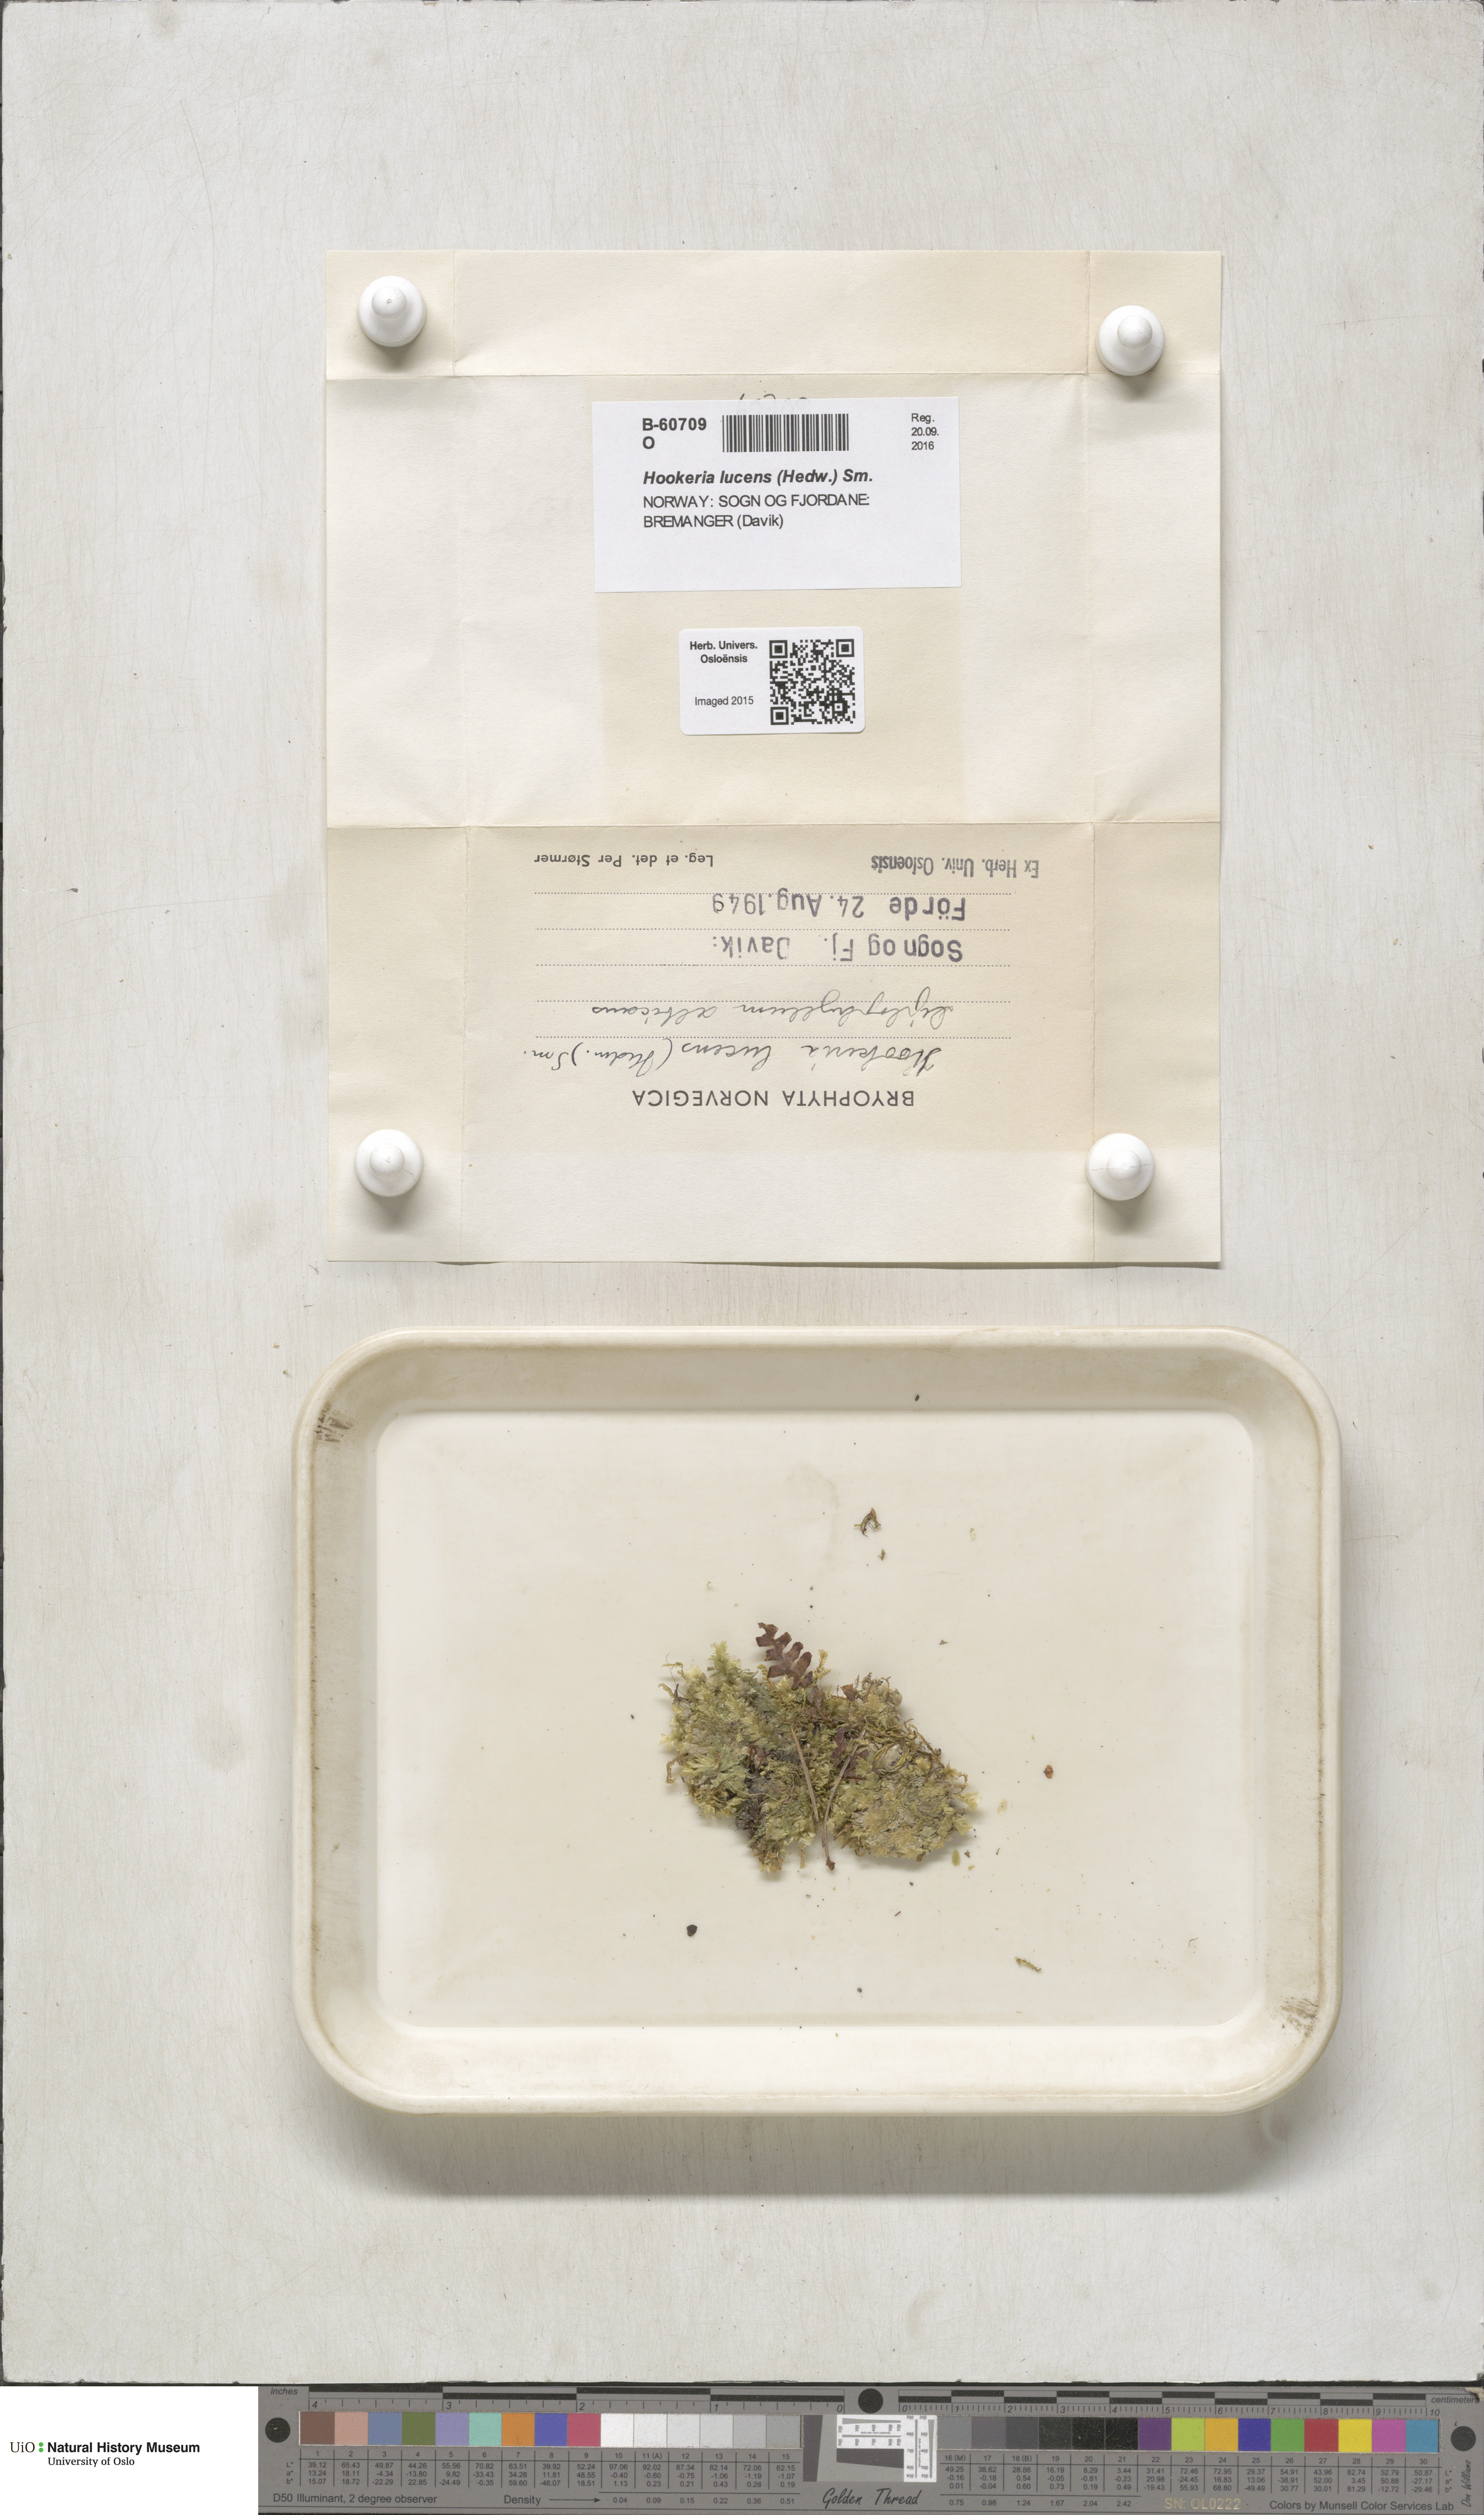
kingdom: Plantae
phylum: Bryophyta
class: Bryopsida
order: Hookeriales
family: Hookeriaceae
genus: Hookeria
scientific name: Hookeria lucens
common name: Shining hookeria
